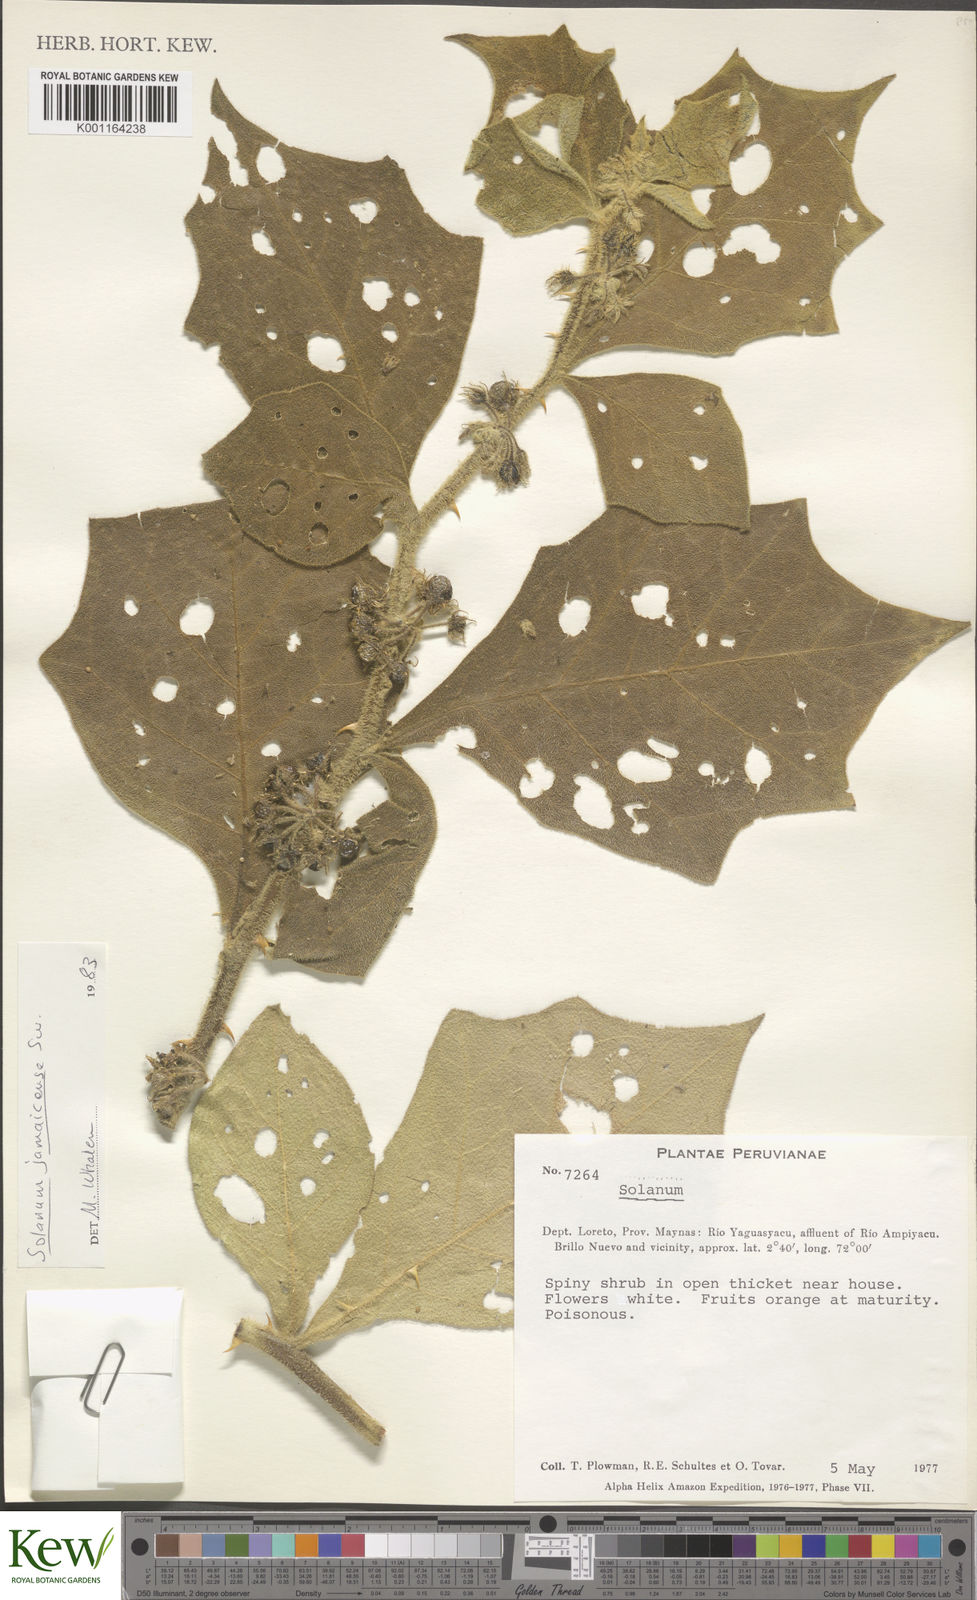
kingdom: Plantae
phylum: Tracheophyta
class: Magnoliopsida
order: Solanales
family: Solanaceae
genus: Solanum
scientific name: Solanum jamaicense
